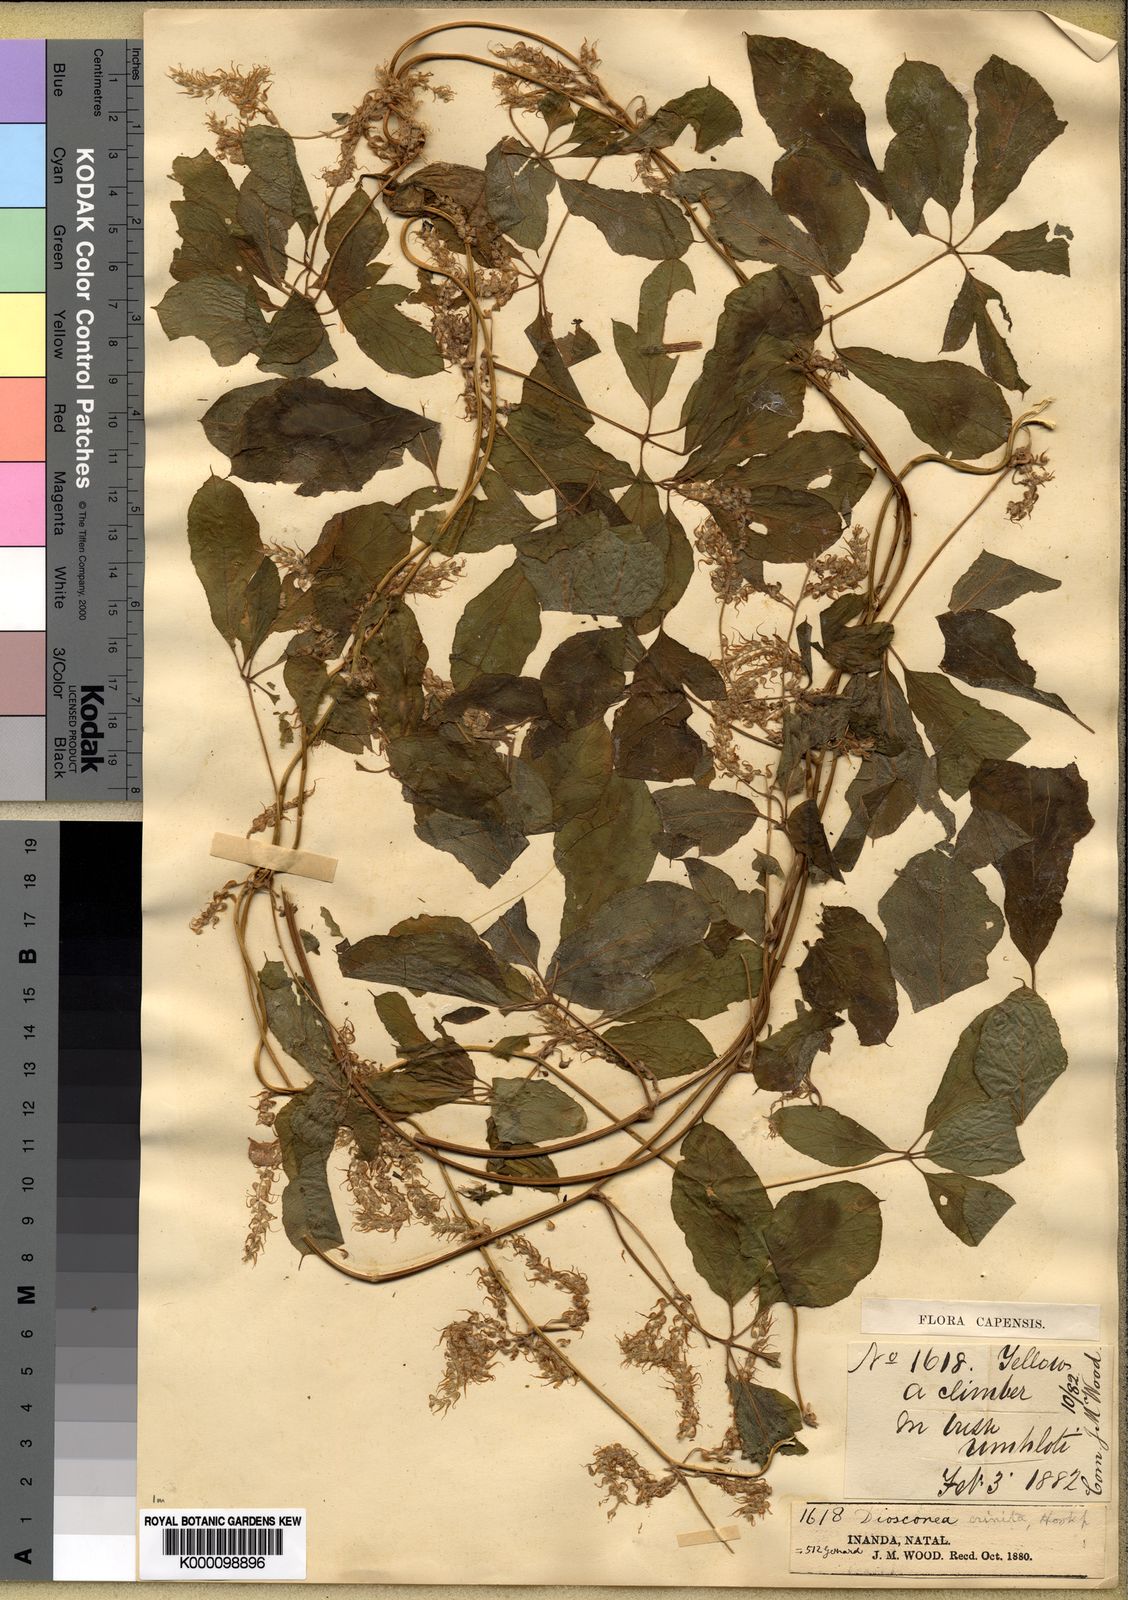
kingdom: Plantae
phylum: Tracheophyta
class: Liliopsida
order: Dioscoreales
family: Dioscoreaceae
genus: Dioscorea
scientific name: Dioscorea quartiniana
